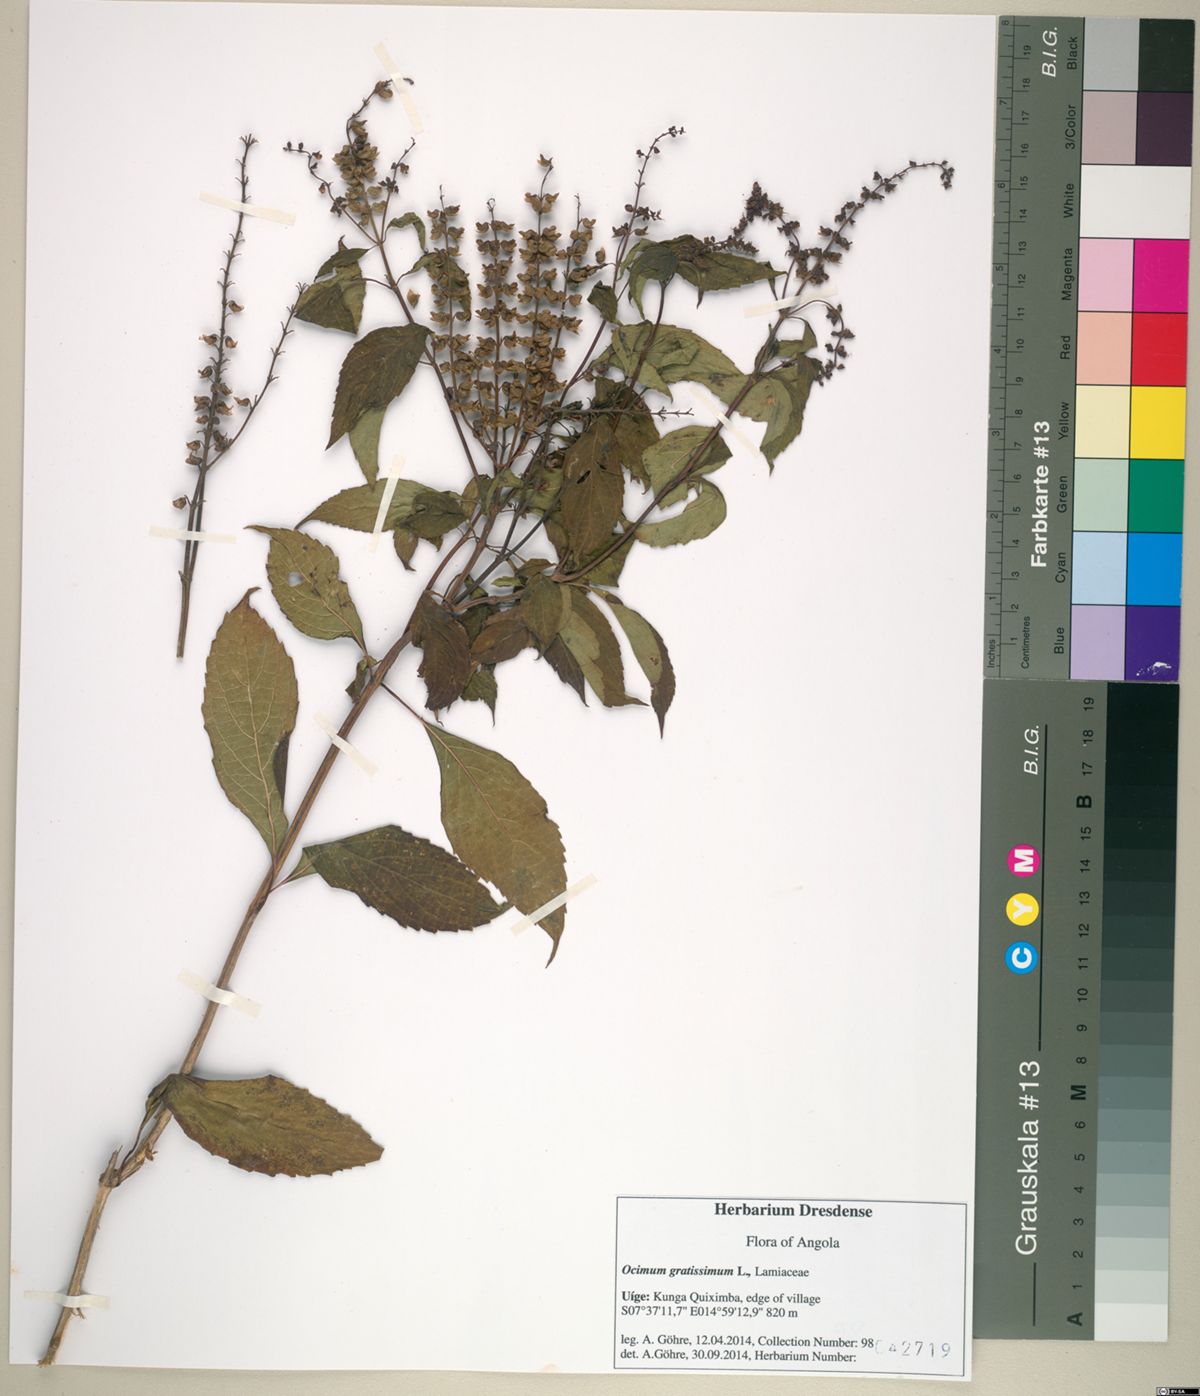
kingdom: Plantae
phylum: Tracheophyta
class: Magnoliopsida
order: Lamiales
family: Lamiaceae
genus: Ocimum
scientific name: Ocimum gratissimum
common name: African basil
